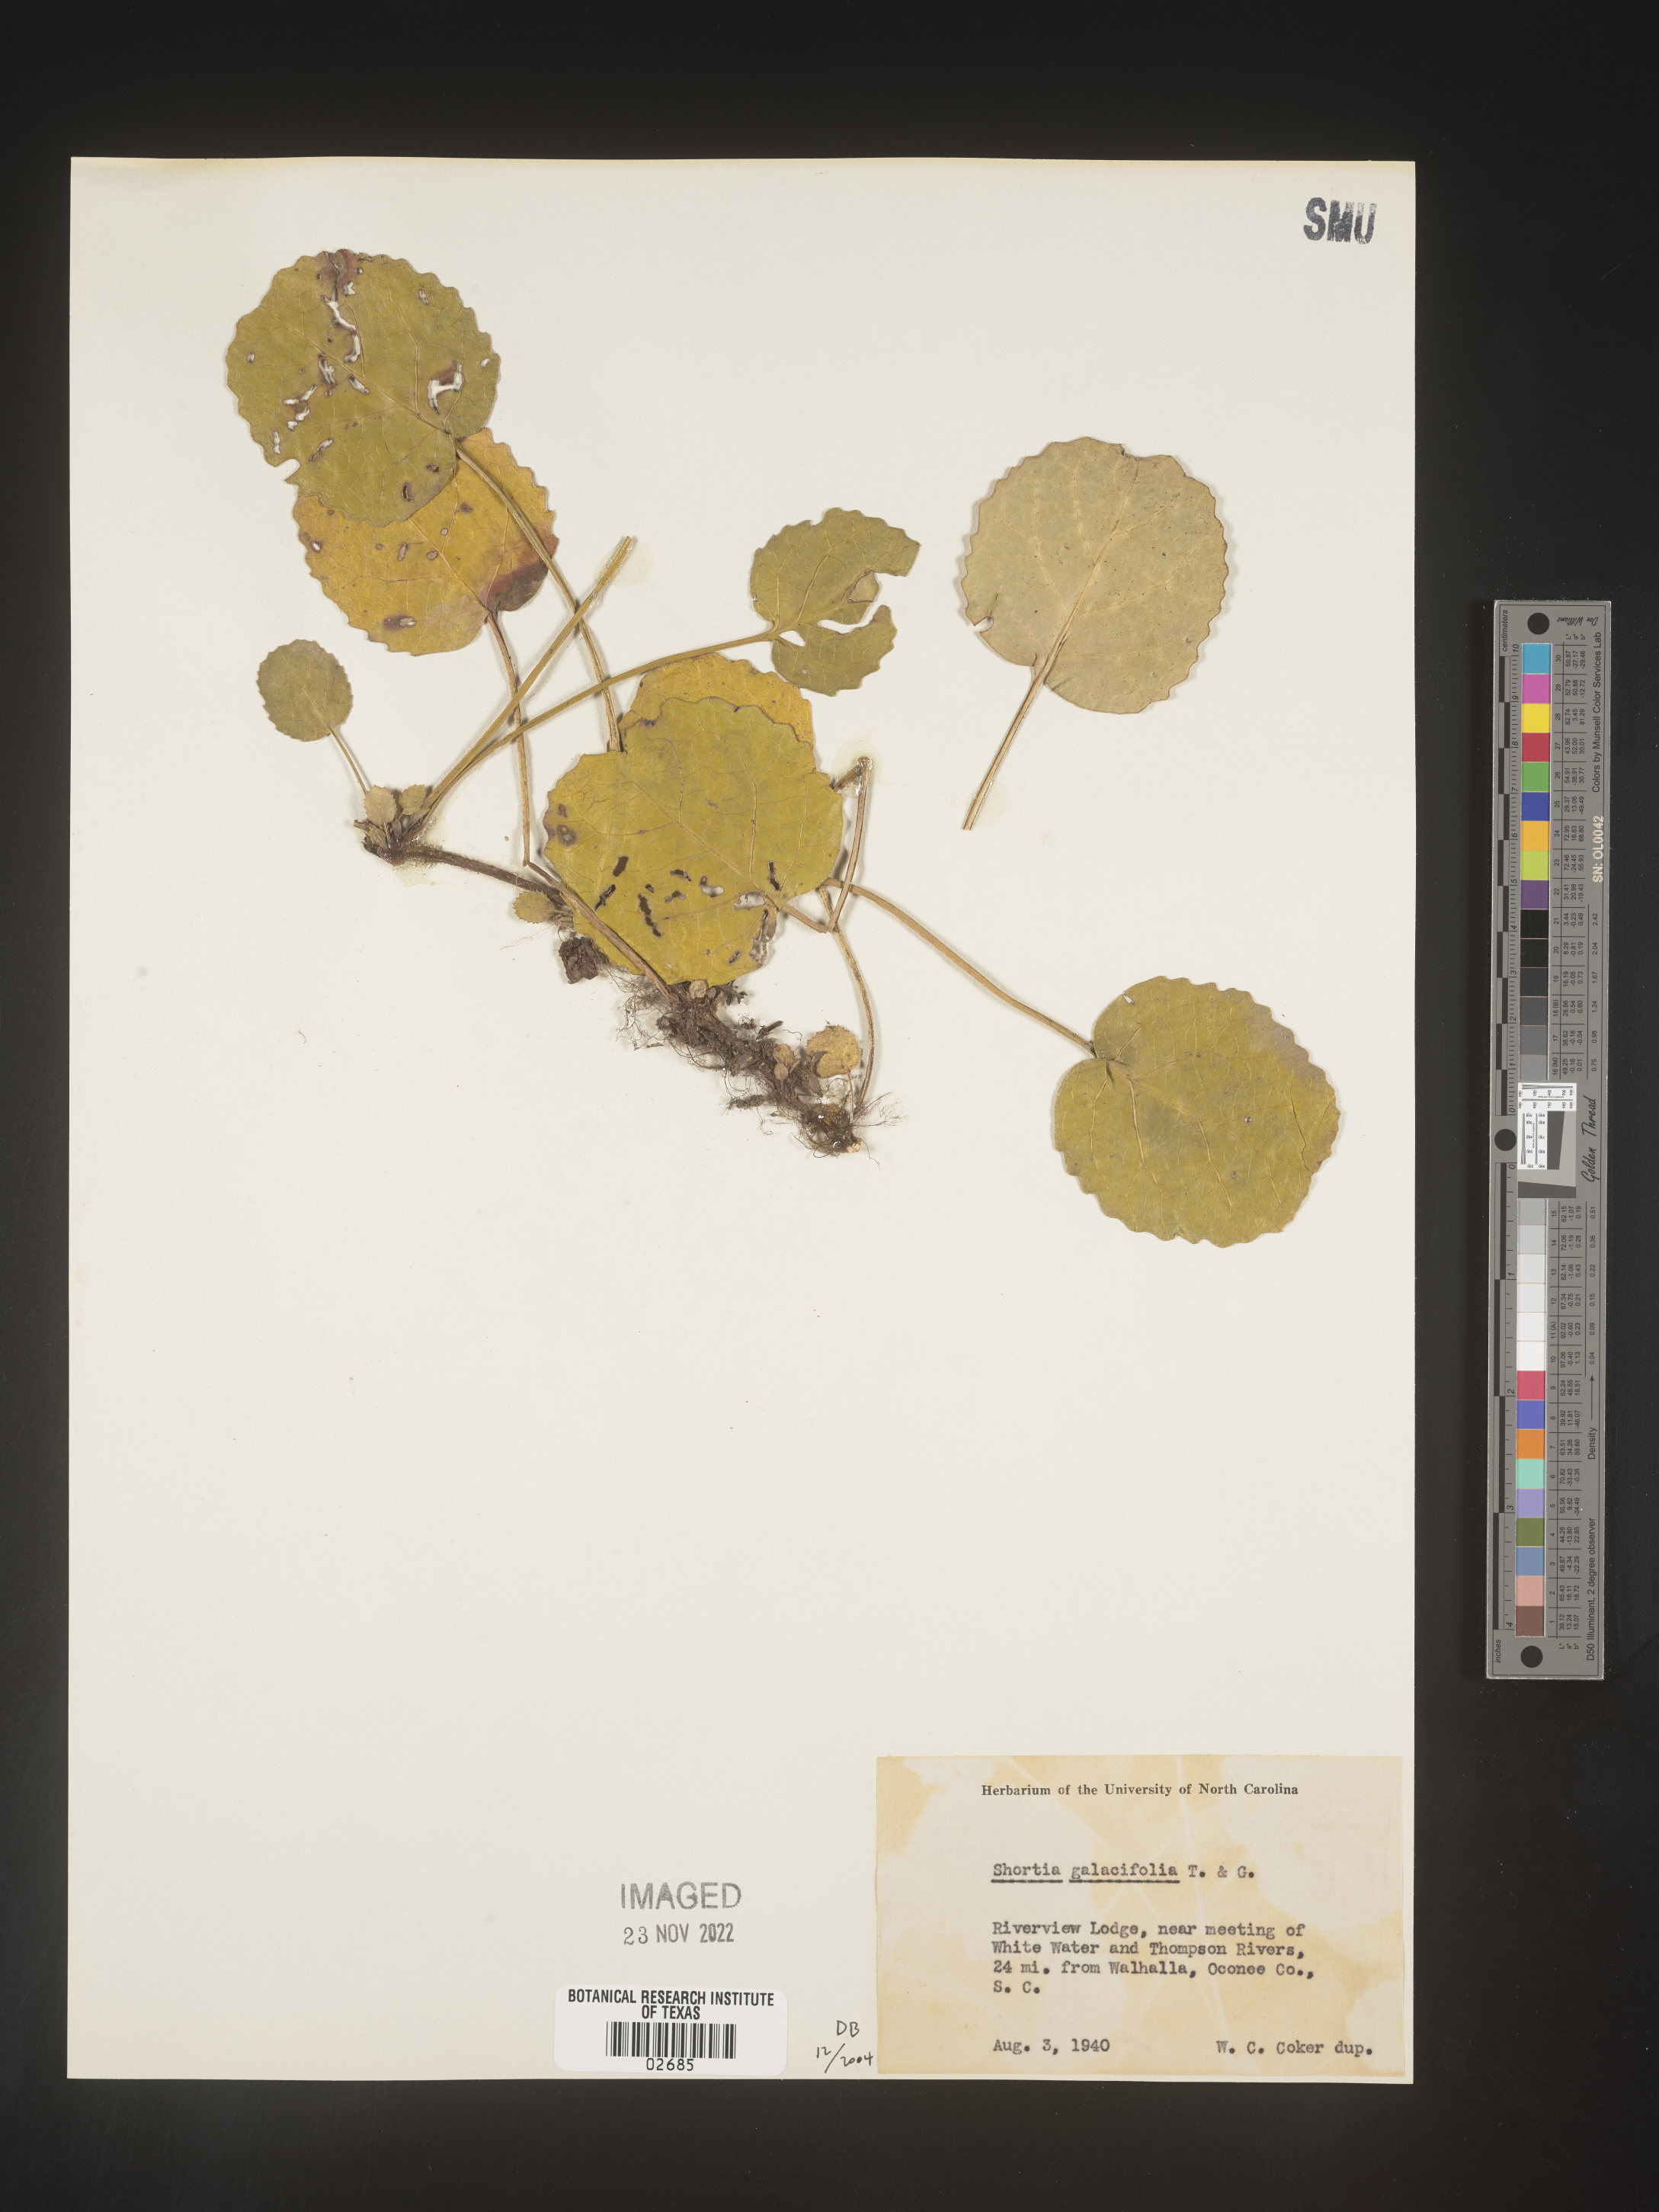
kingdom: Plantae
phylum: Tracheophyta
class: Magnoliopsida
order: Ericales
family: Diapensiaceae
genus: Shortia
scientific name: Shortia galacifolia
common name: Shortia
